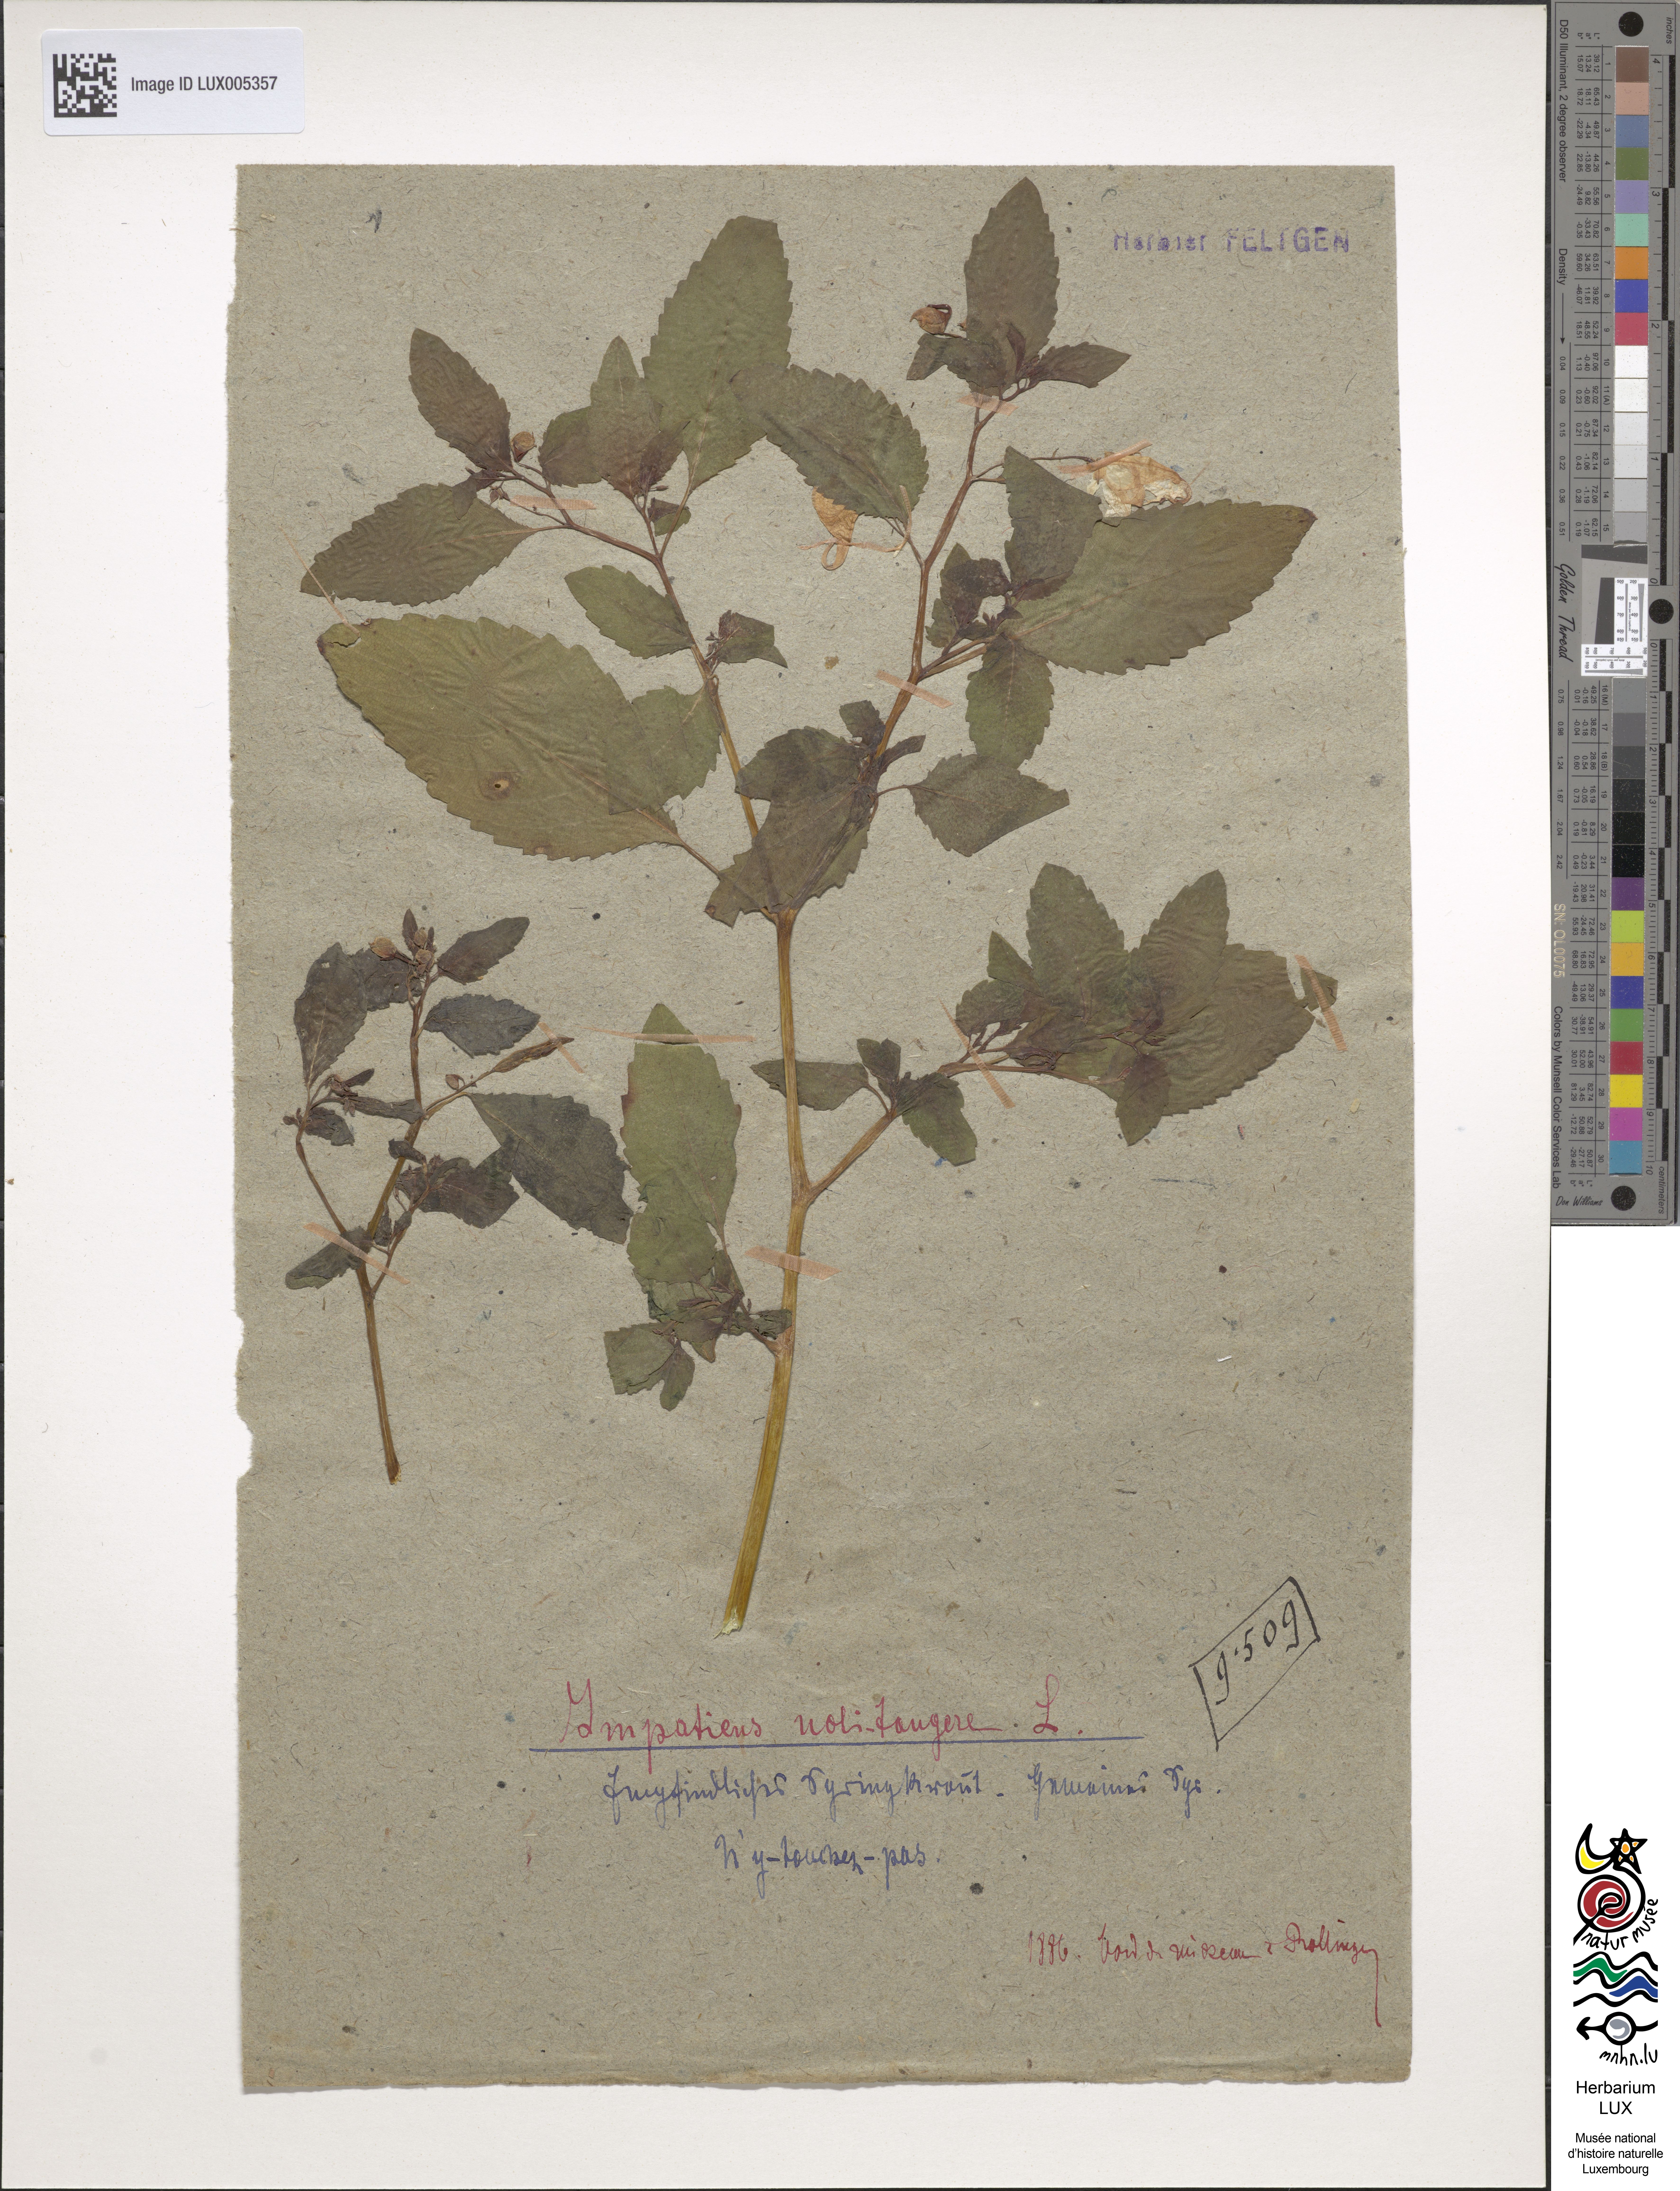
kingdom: Plantae
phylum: Tracheophyta
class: Magnoliopsida
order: Ericales
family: Balsaminaceae
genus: Impatiens
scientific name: Impatiens noli-tangere
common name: Touch-me-not balsam
